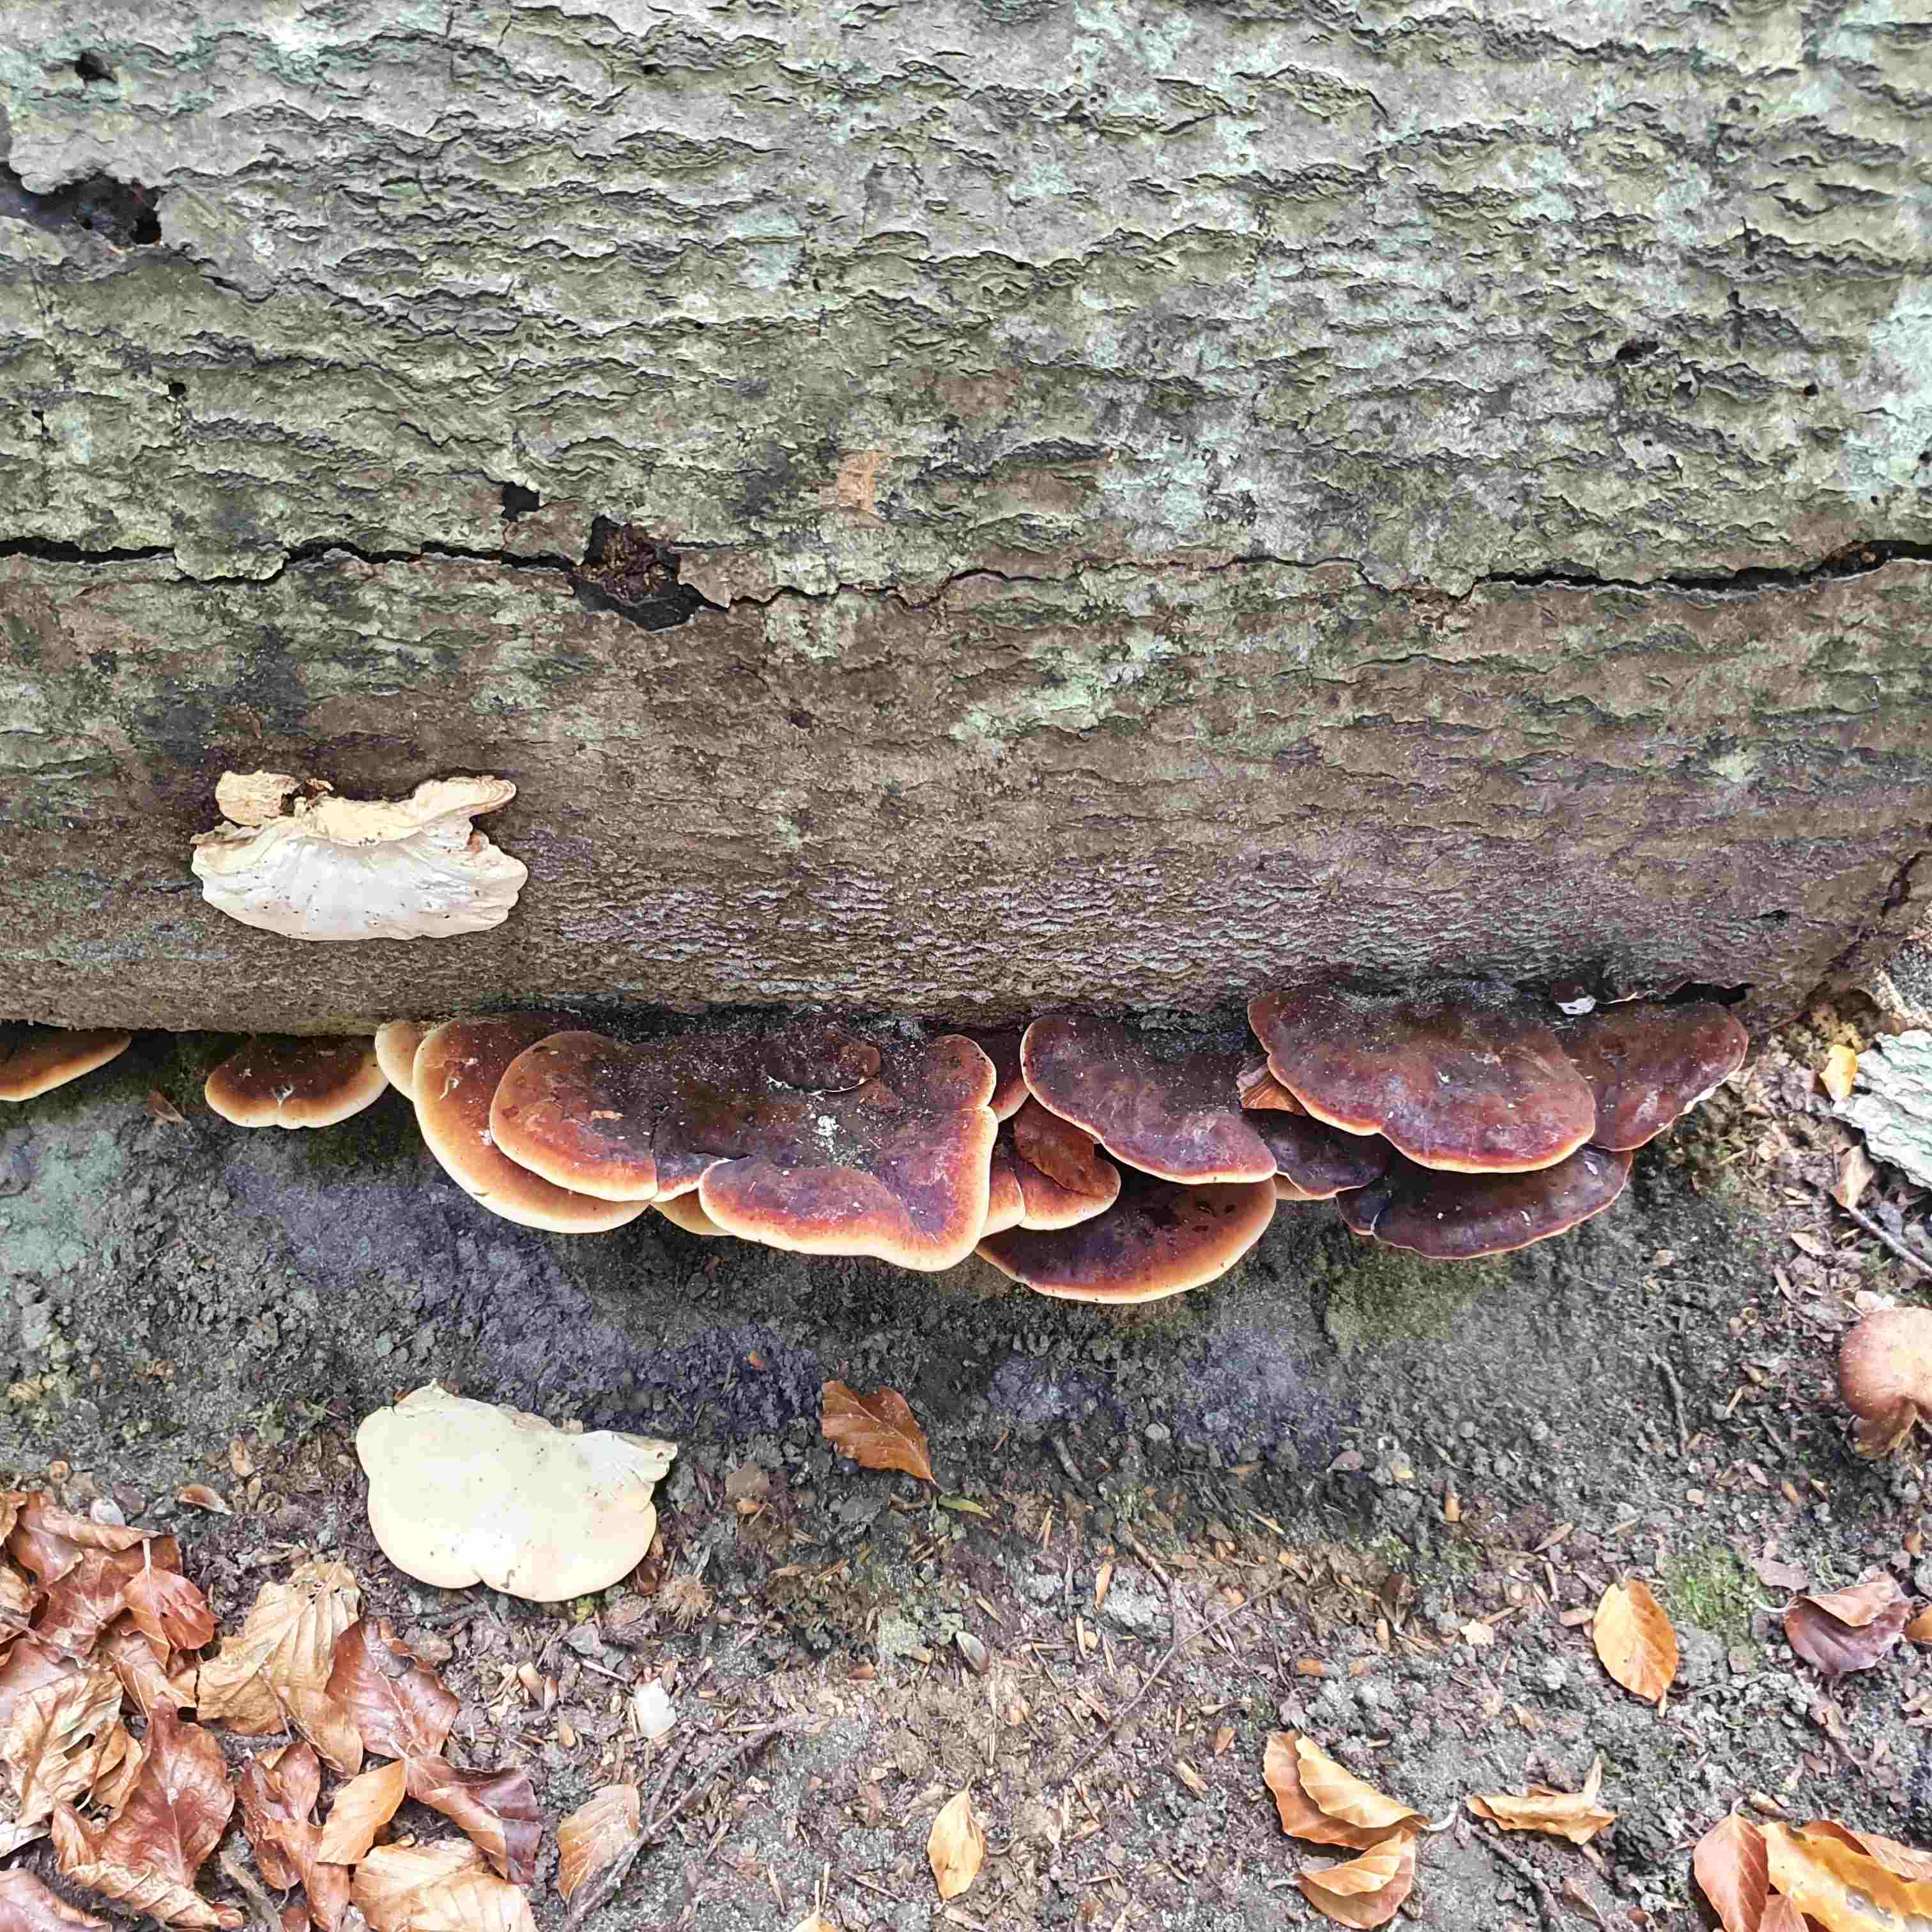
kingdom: Fungi
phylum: Basidiomycota
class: Agaricomycetes
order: Polyporales
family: Ischnodermataceae
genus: Ischnoderma
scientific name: Ischnoderma resinosum
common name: løv-tjæreporesvamp
